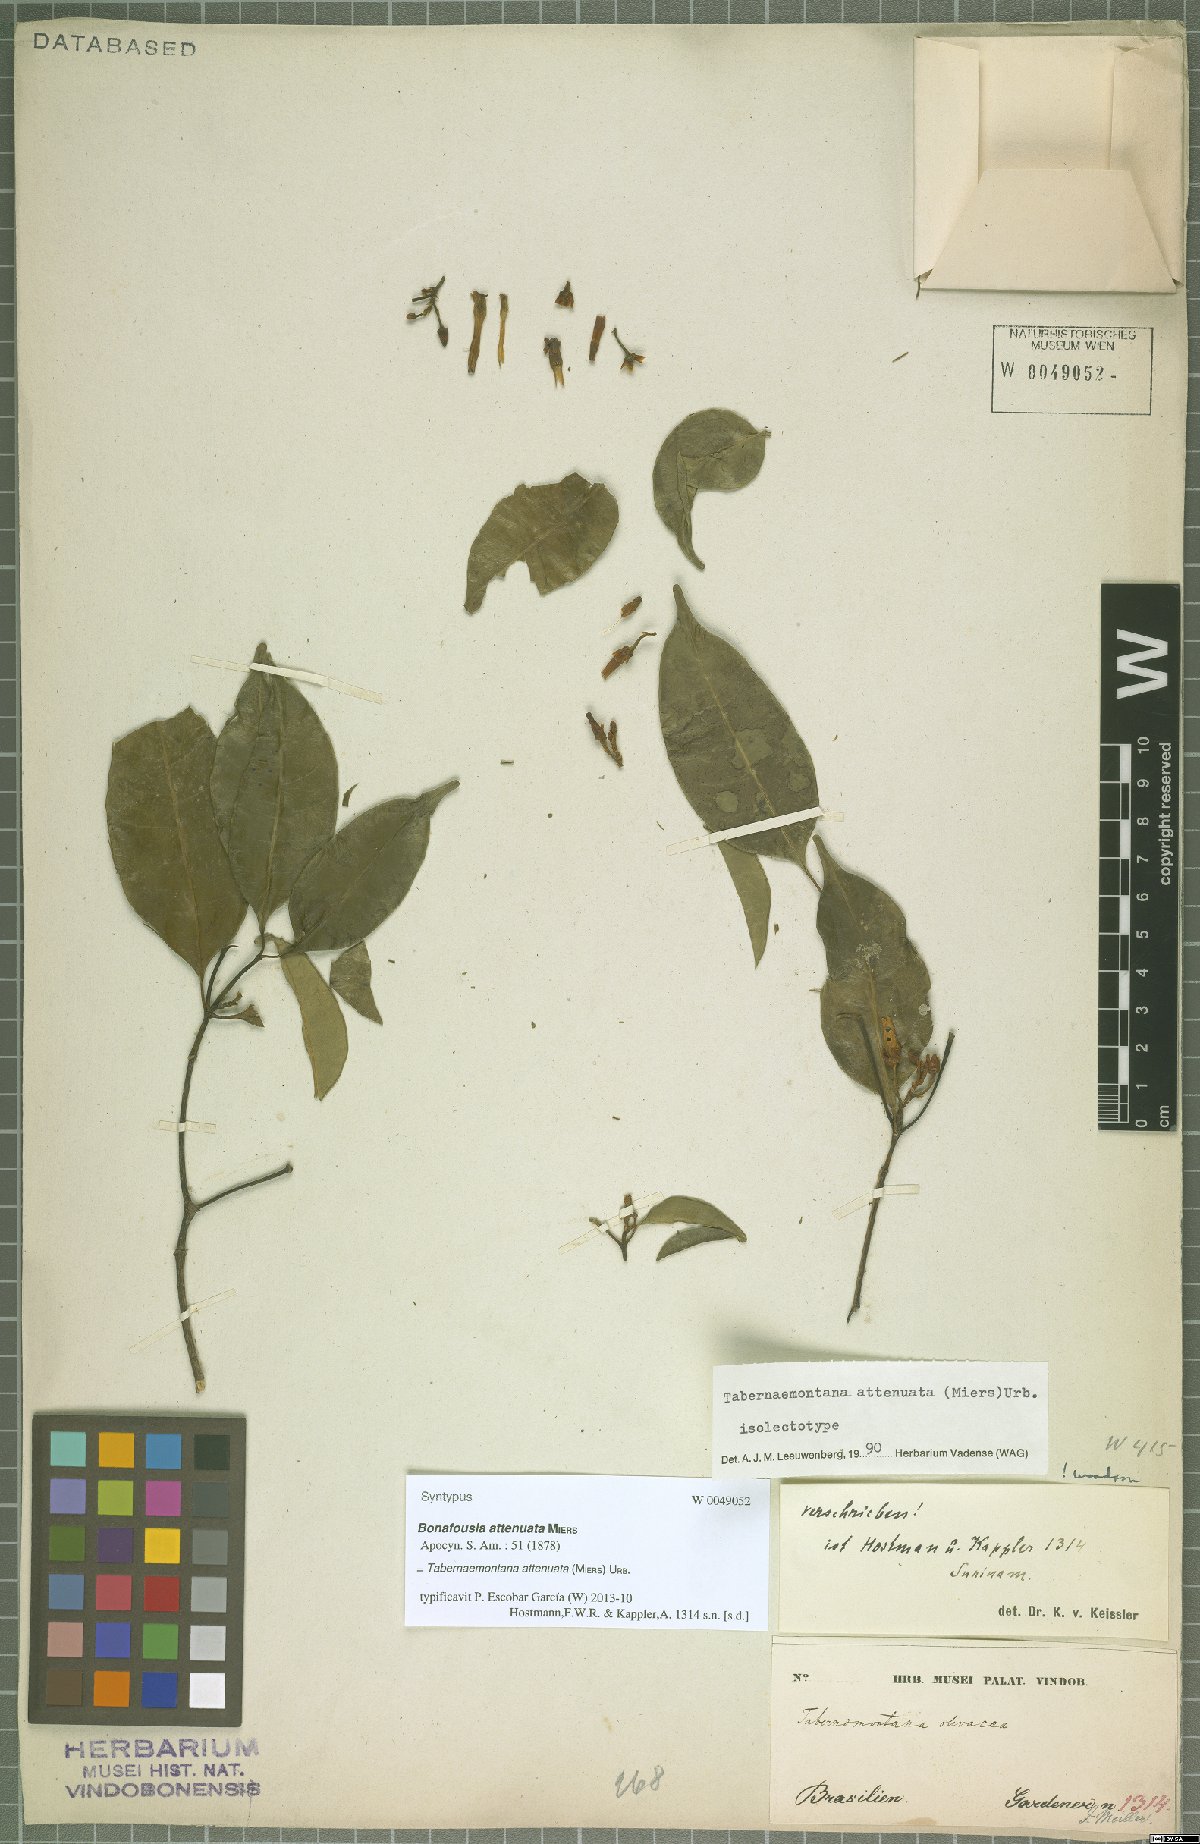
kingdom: Plantae
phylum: Tracheophyta
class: Magnoliopsida
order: Gentianales
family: Apocynaceae
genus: Tabernaemontana
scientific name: Tabernaemontana attenuata
